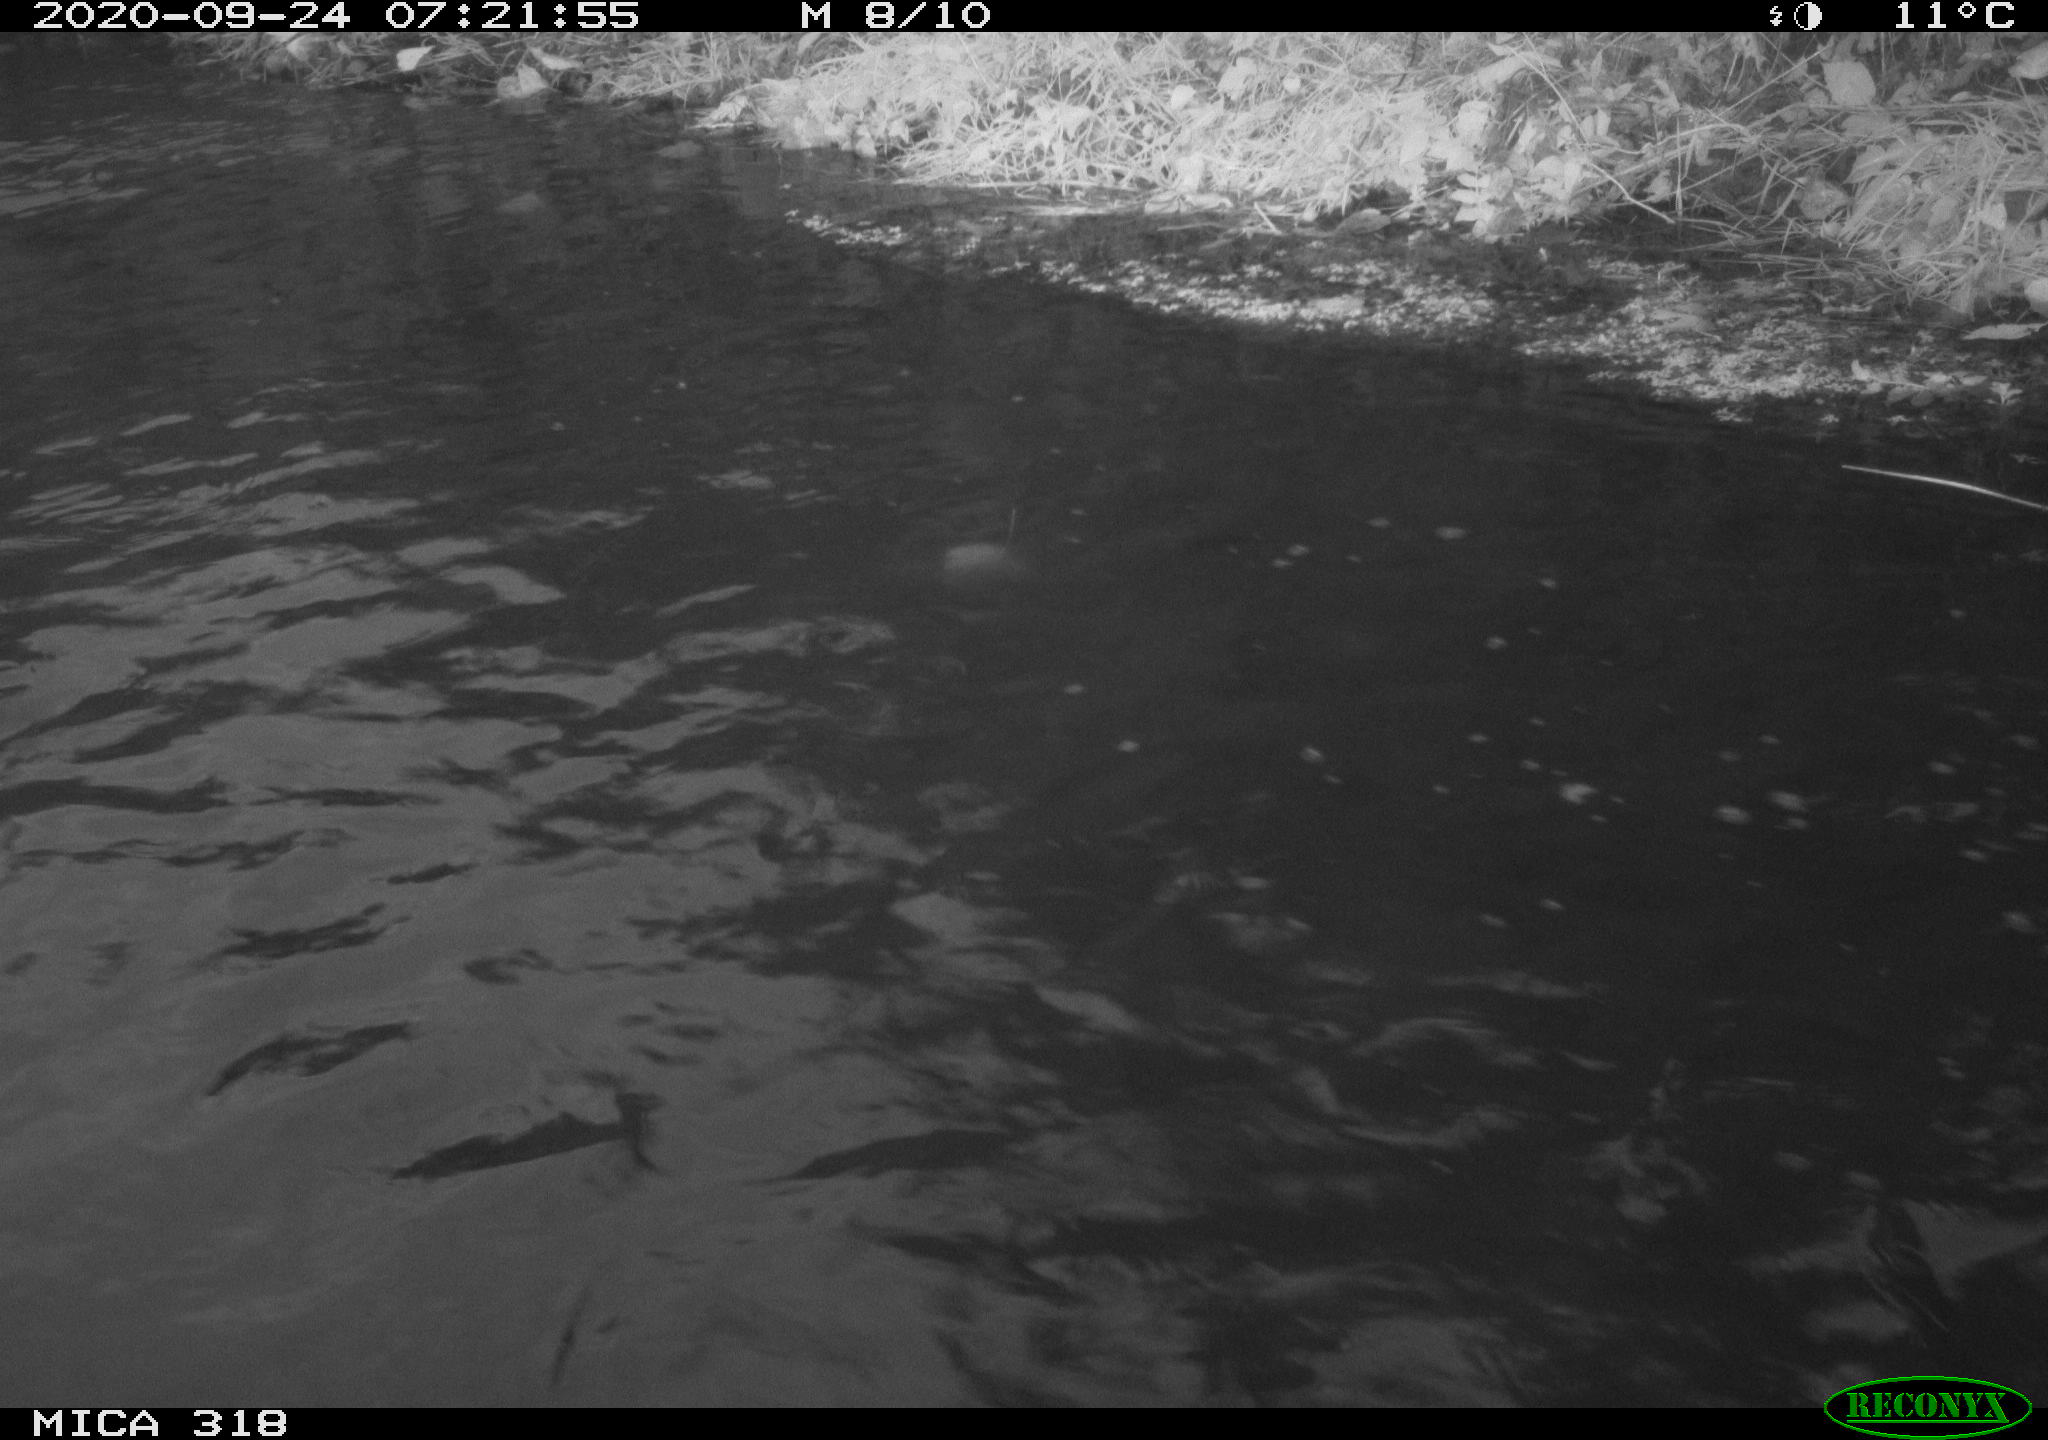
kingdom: Animalia
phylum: Chordata
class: Aves
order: Gruiformes
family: Rallidae
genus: Gallinula
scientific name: Gallinula chloropus
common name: Common moorhen
